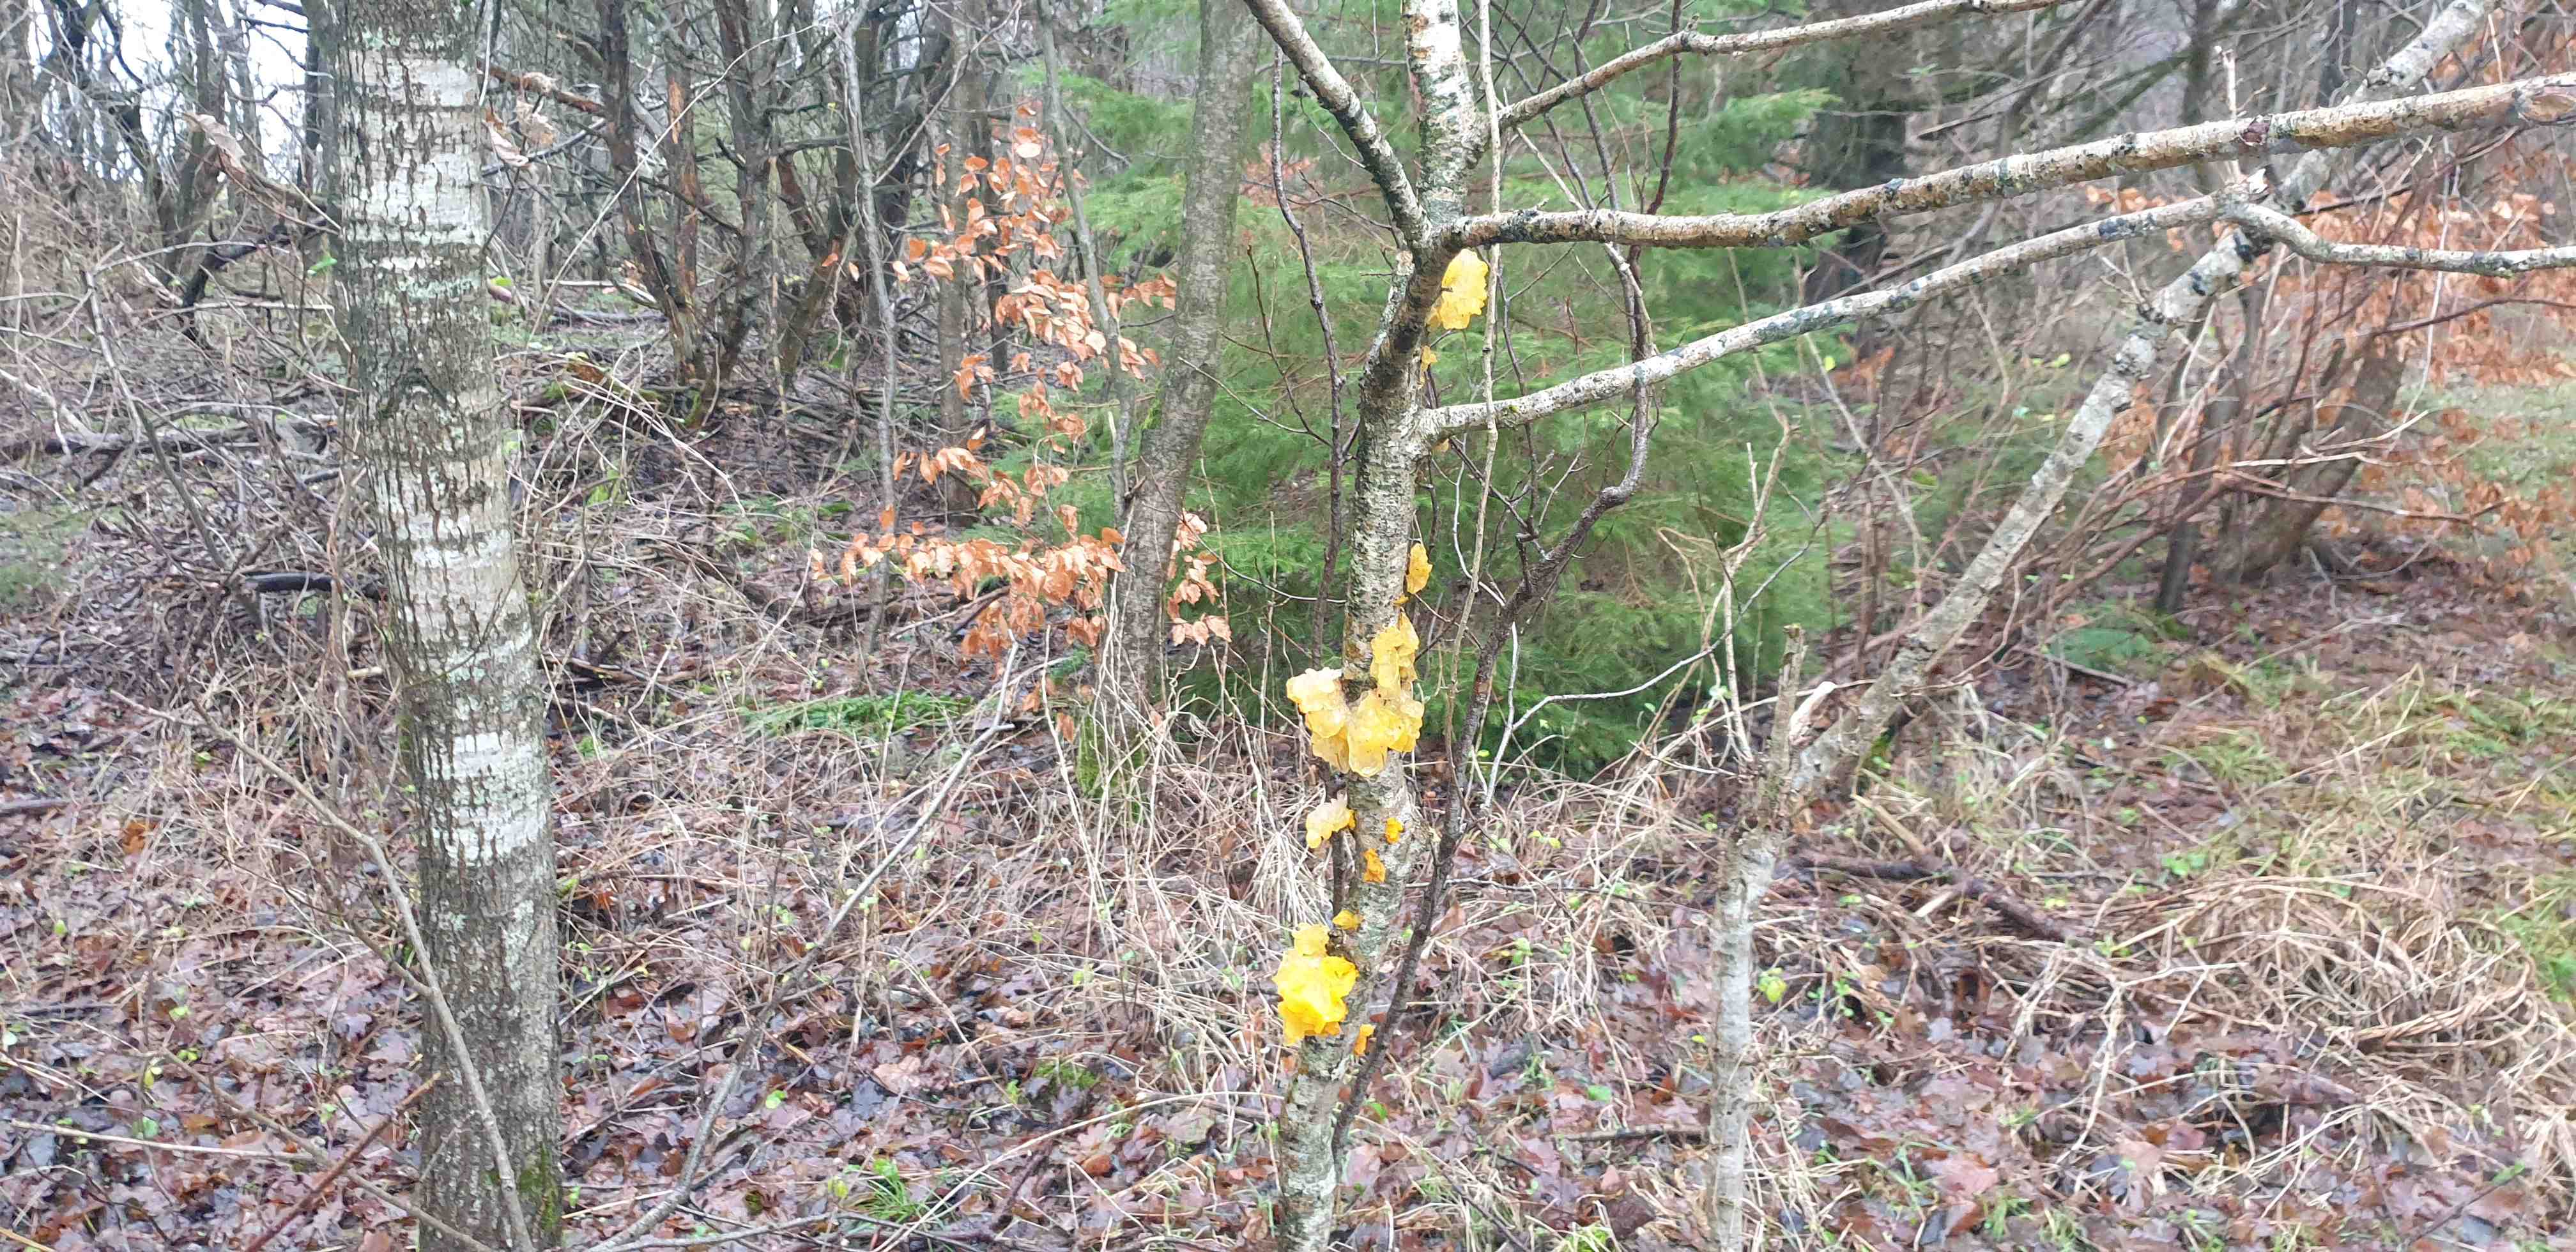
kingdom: Fungi
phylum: Basidiomycota
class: Tremellomycetes
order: Tremellales
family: Tremellaceae
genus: Tremella
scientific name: Tremella mesenterica
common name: gul bævresvamp
